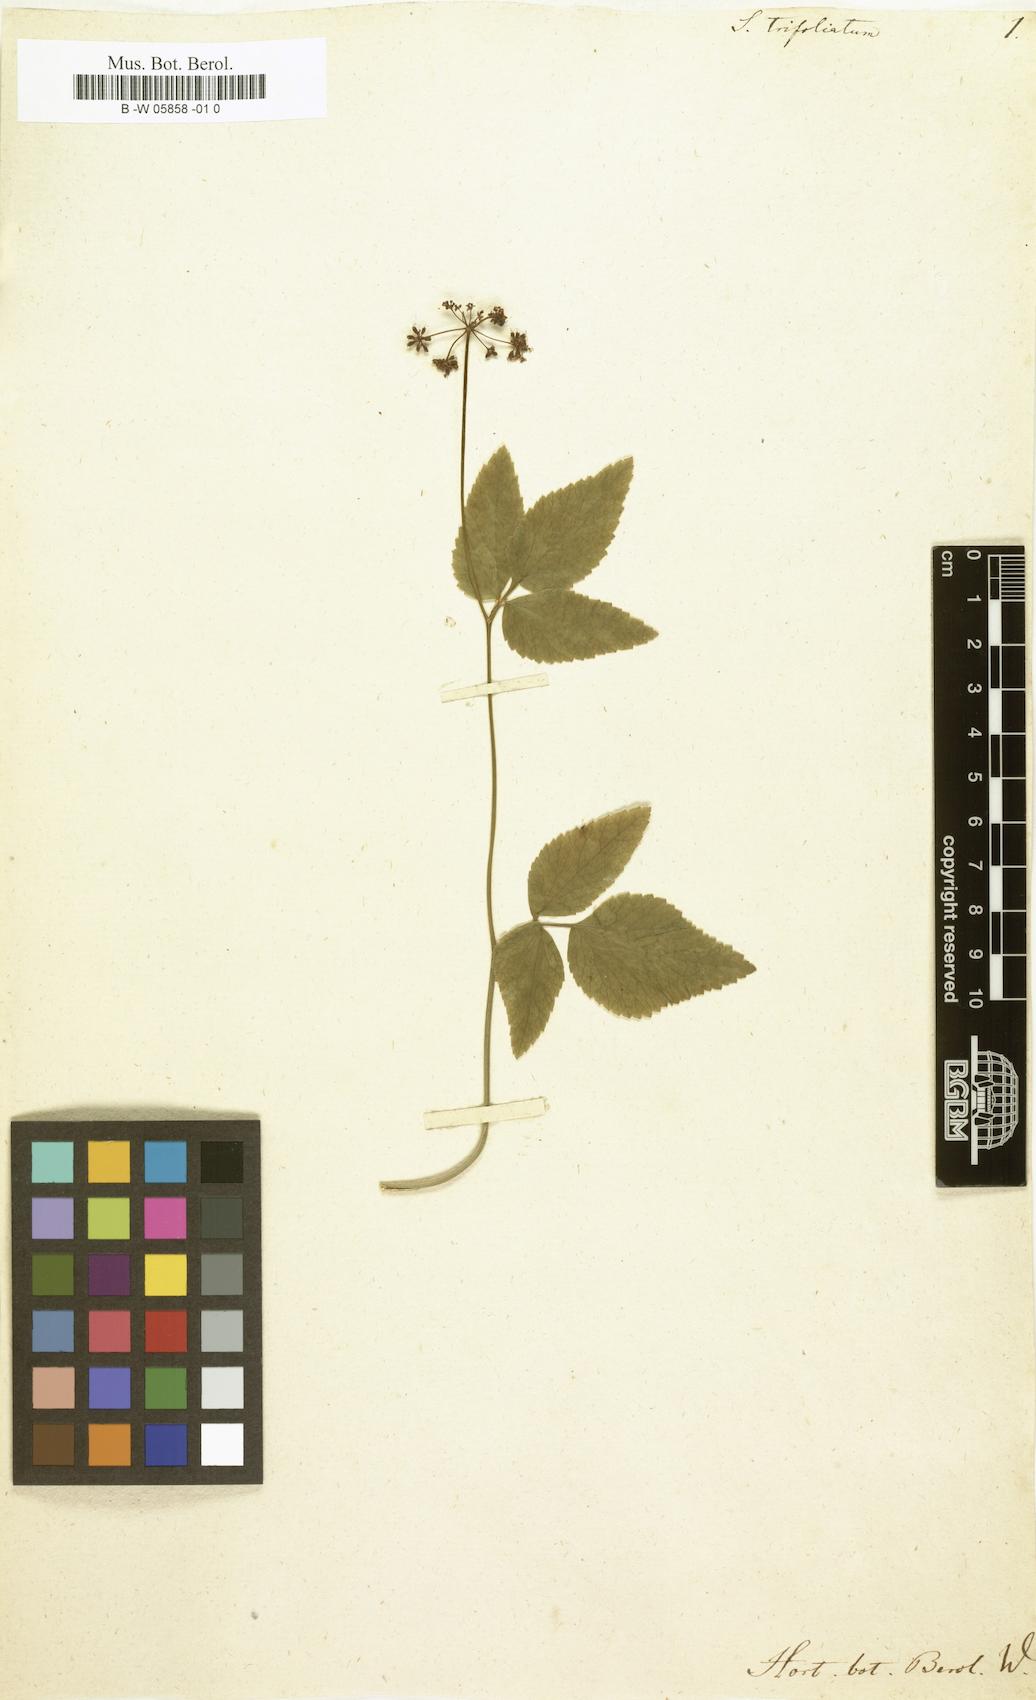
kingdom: Plantae
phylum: Tracheophyta
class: Magnoliopsida
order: Apiales
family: Apiaceae
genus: Zizia
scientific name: Zizia trifoliata
